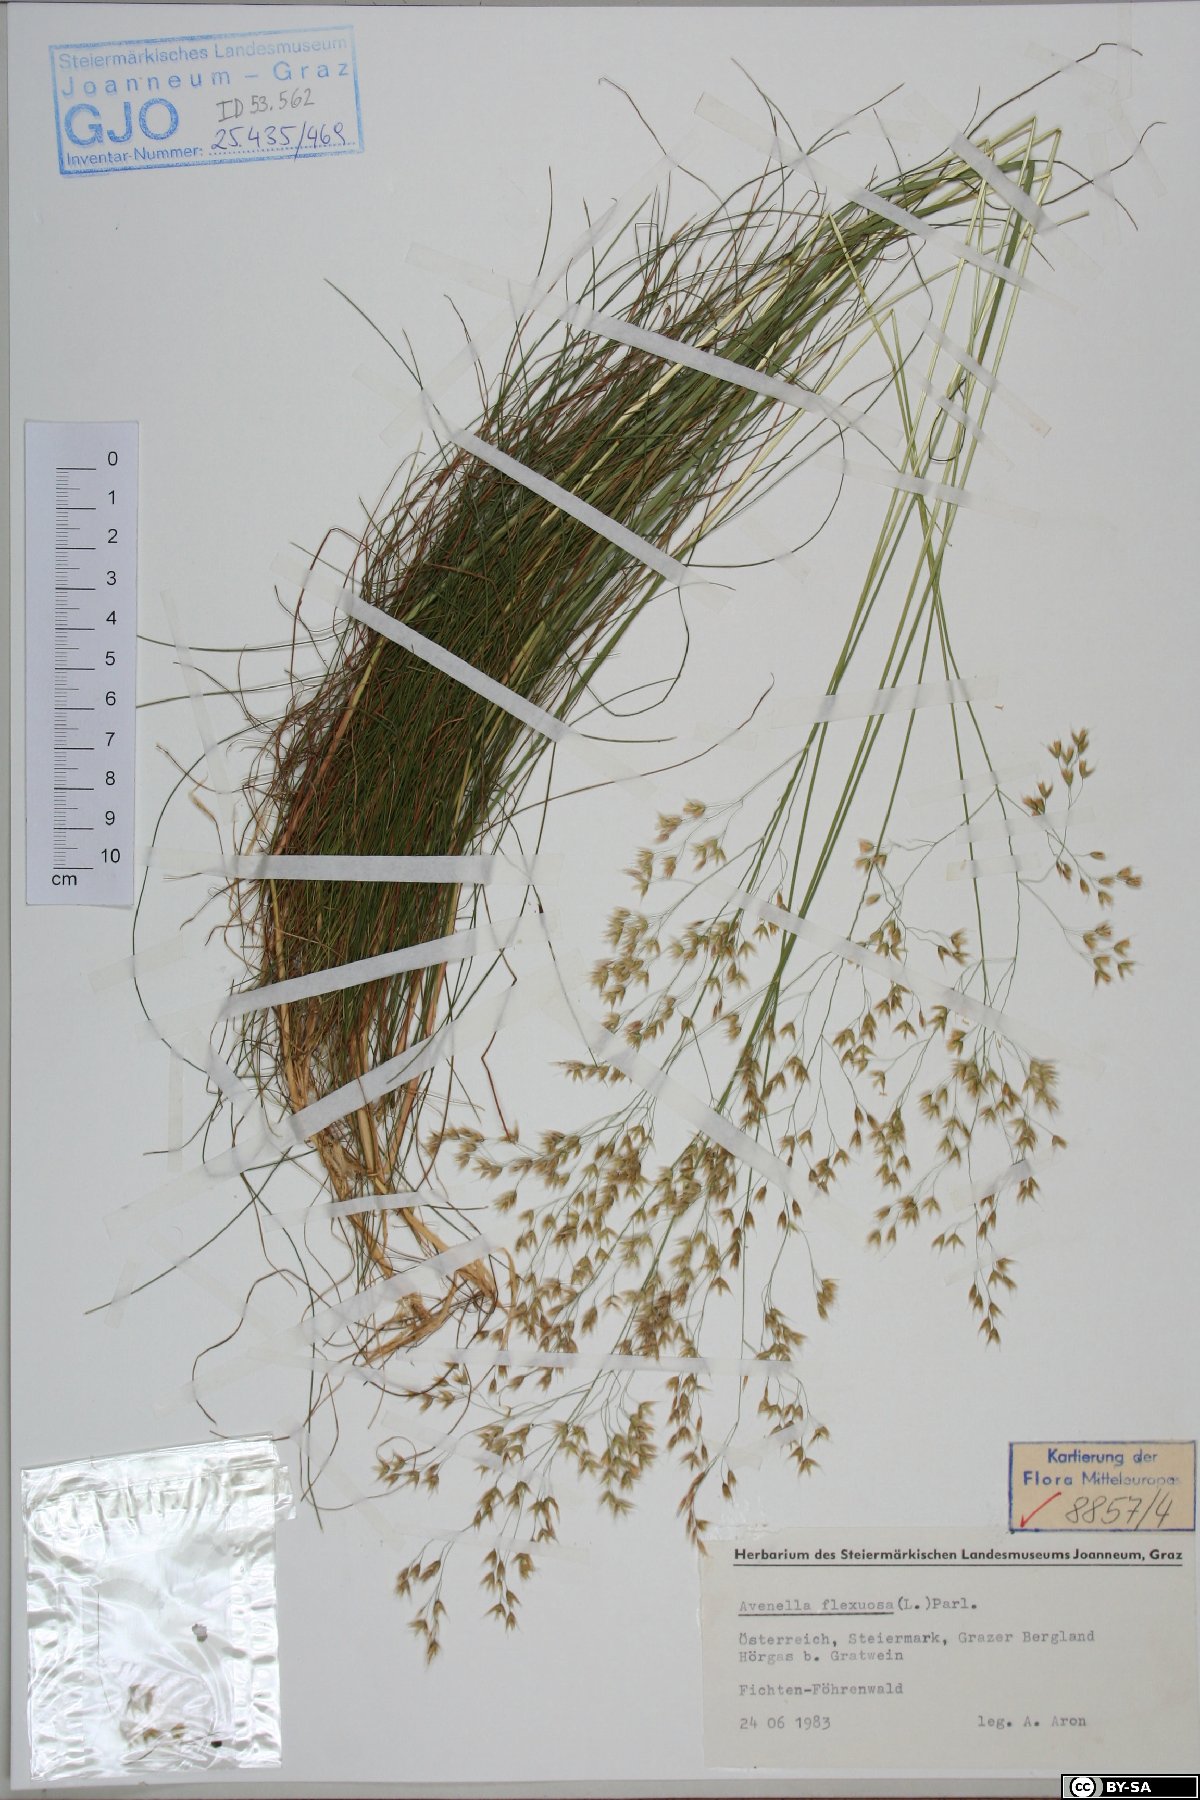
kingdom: Plantae
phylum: Tracheophyta
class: Liliopsida
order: Poales
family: Poaceae
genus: Avenella
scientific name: Avenella flexuosa
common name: Wavy hairgrass
